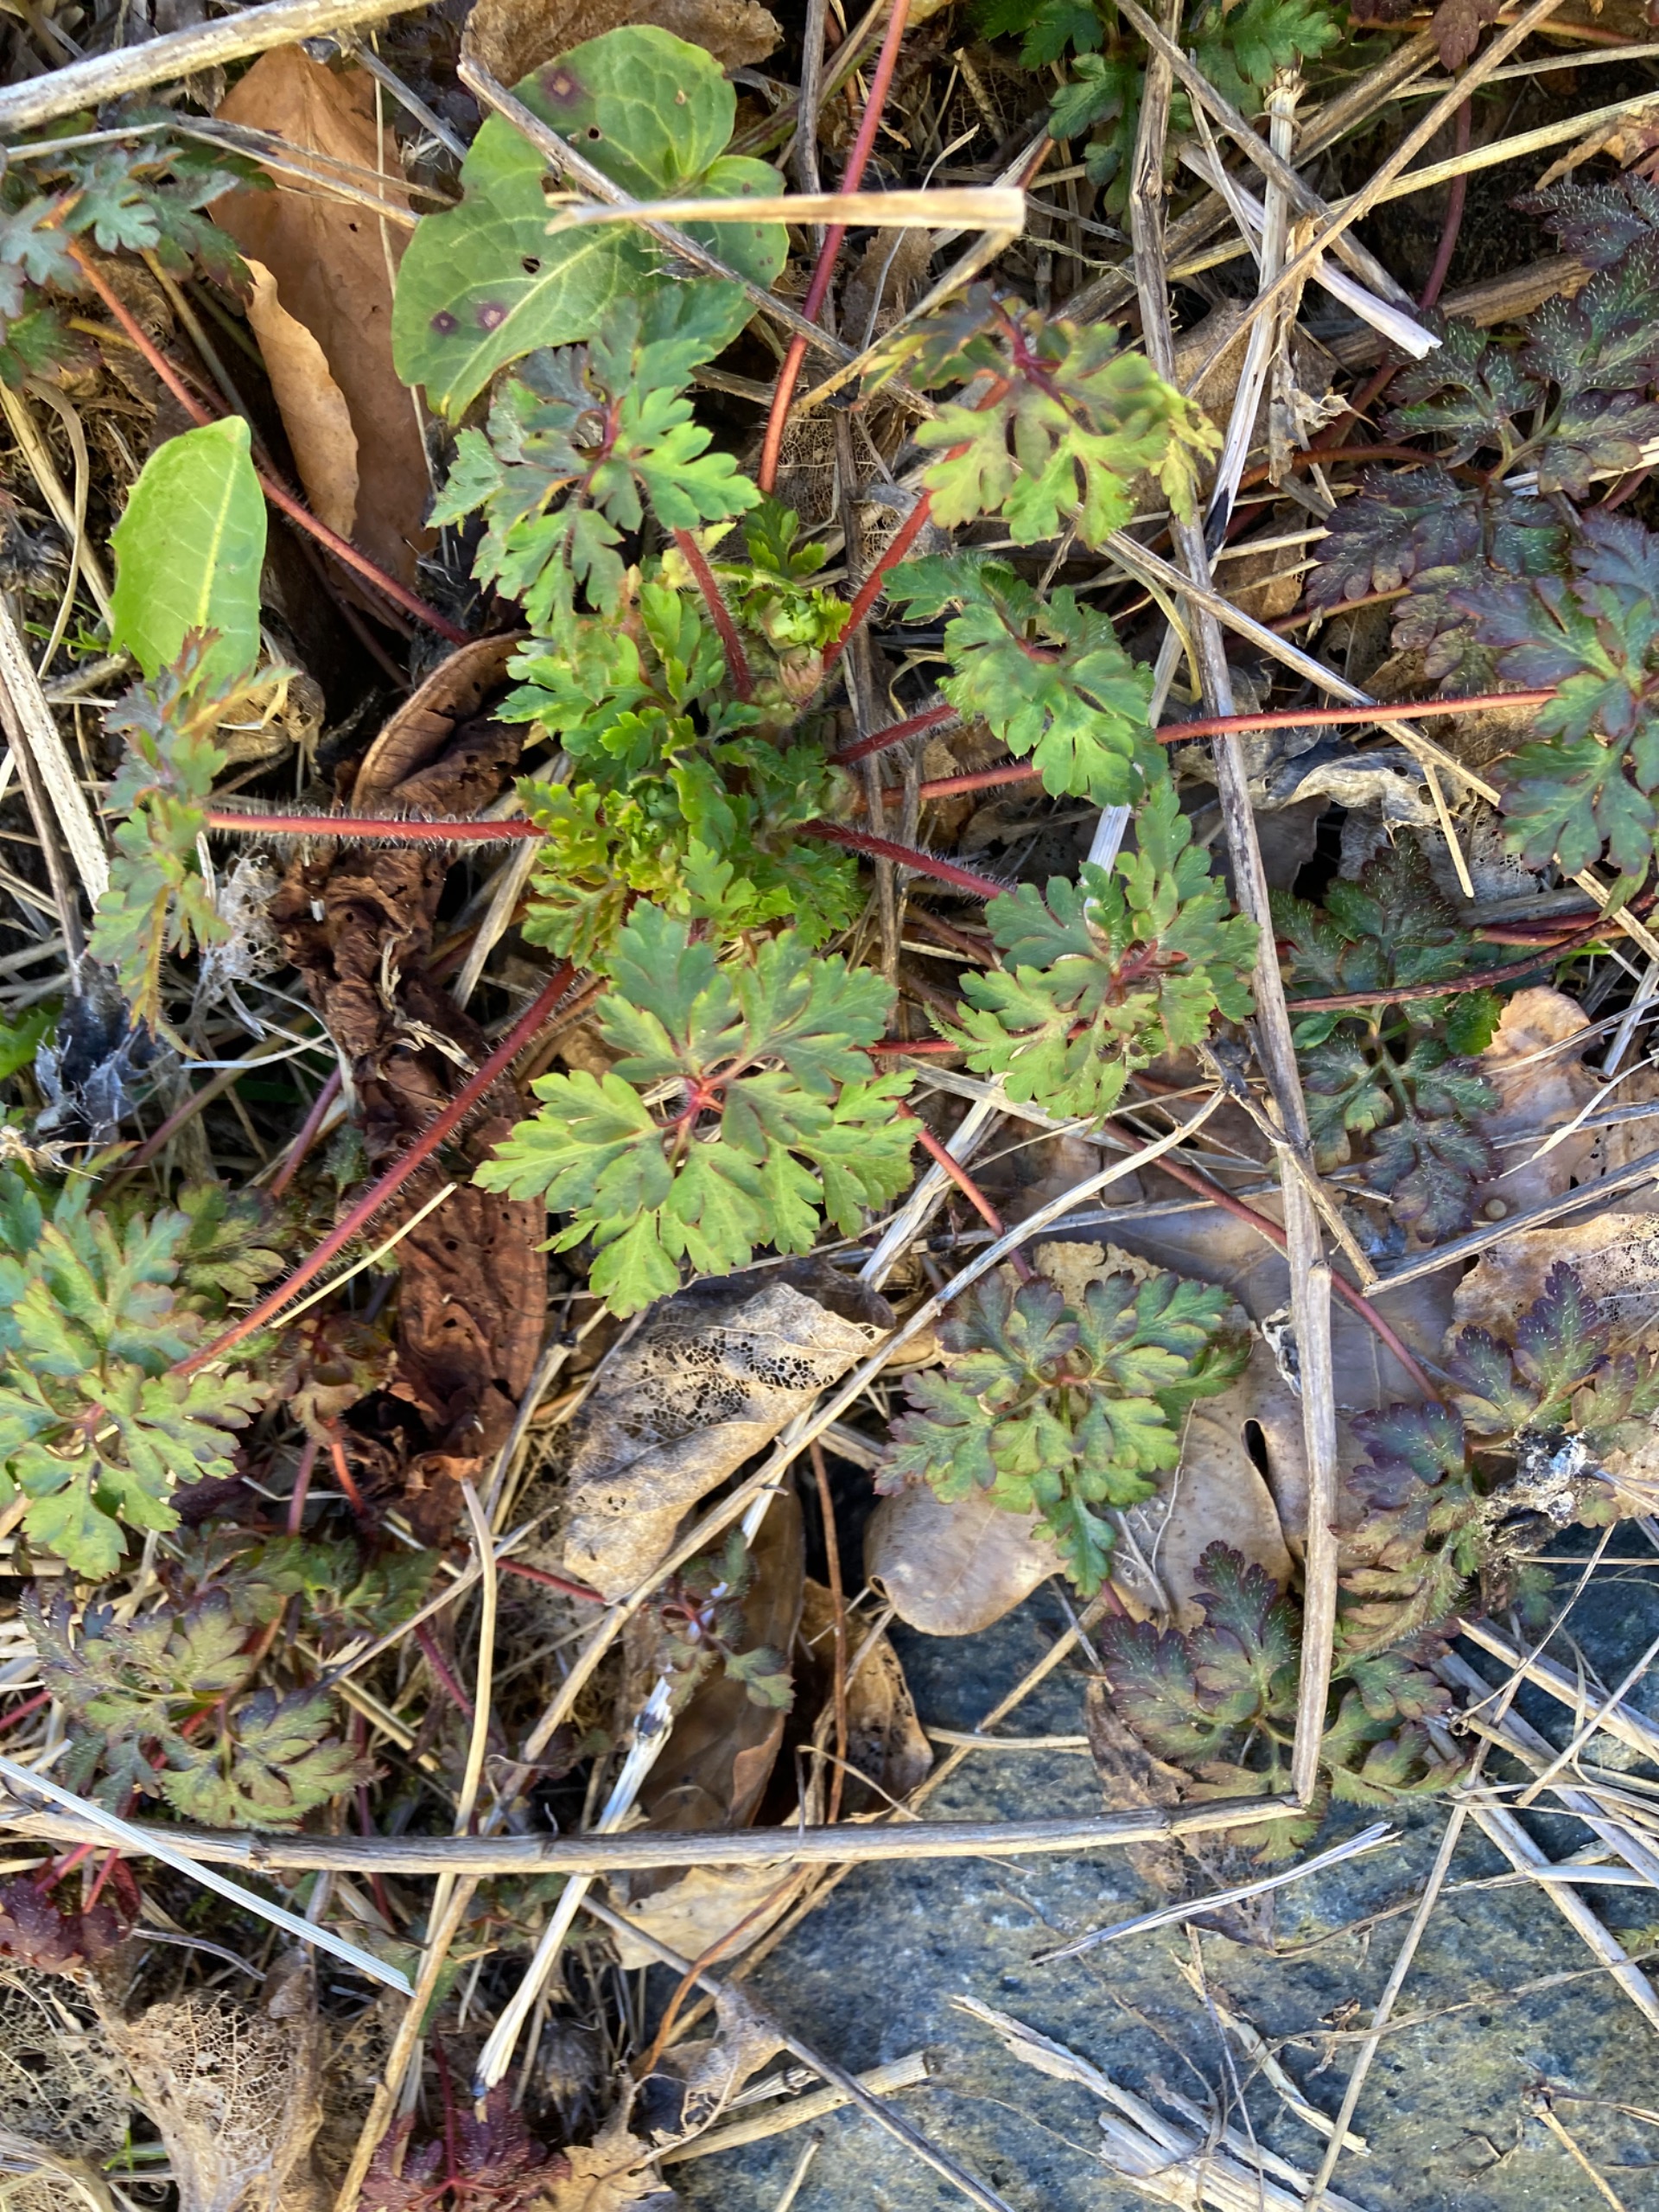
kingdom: Plantae
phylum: Tracheophyta
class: Magnoliopsida
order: Geraniales
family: Geraniaceae
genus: Geranium
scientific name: Geranium robertianum
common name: Stinkende storkenæb
